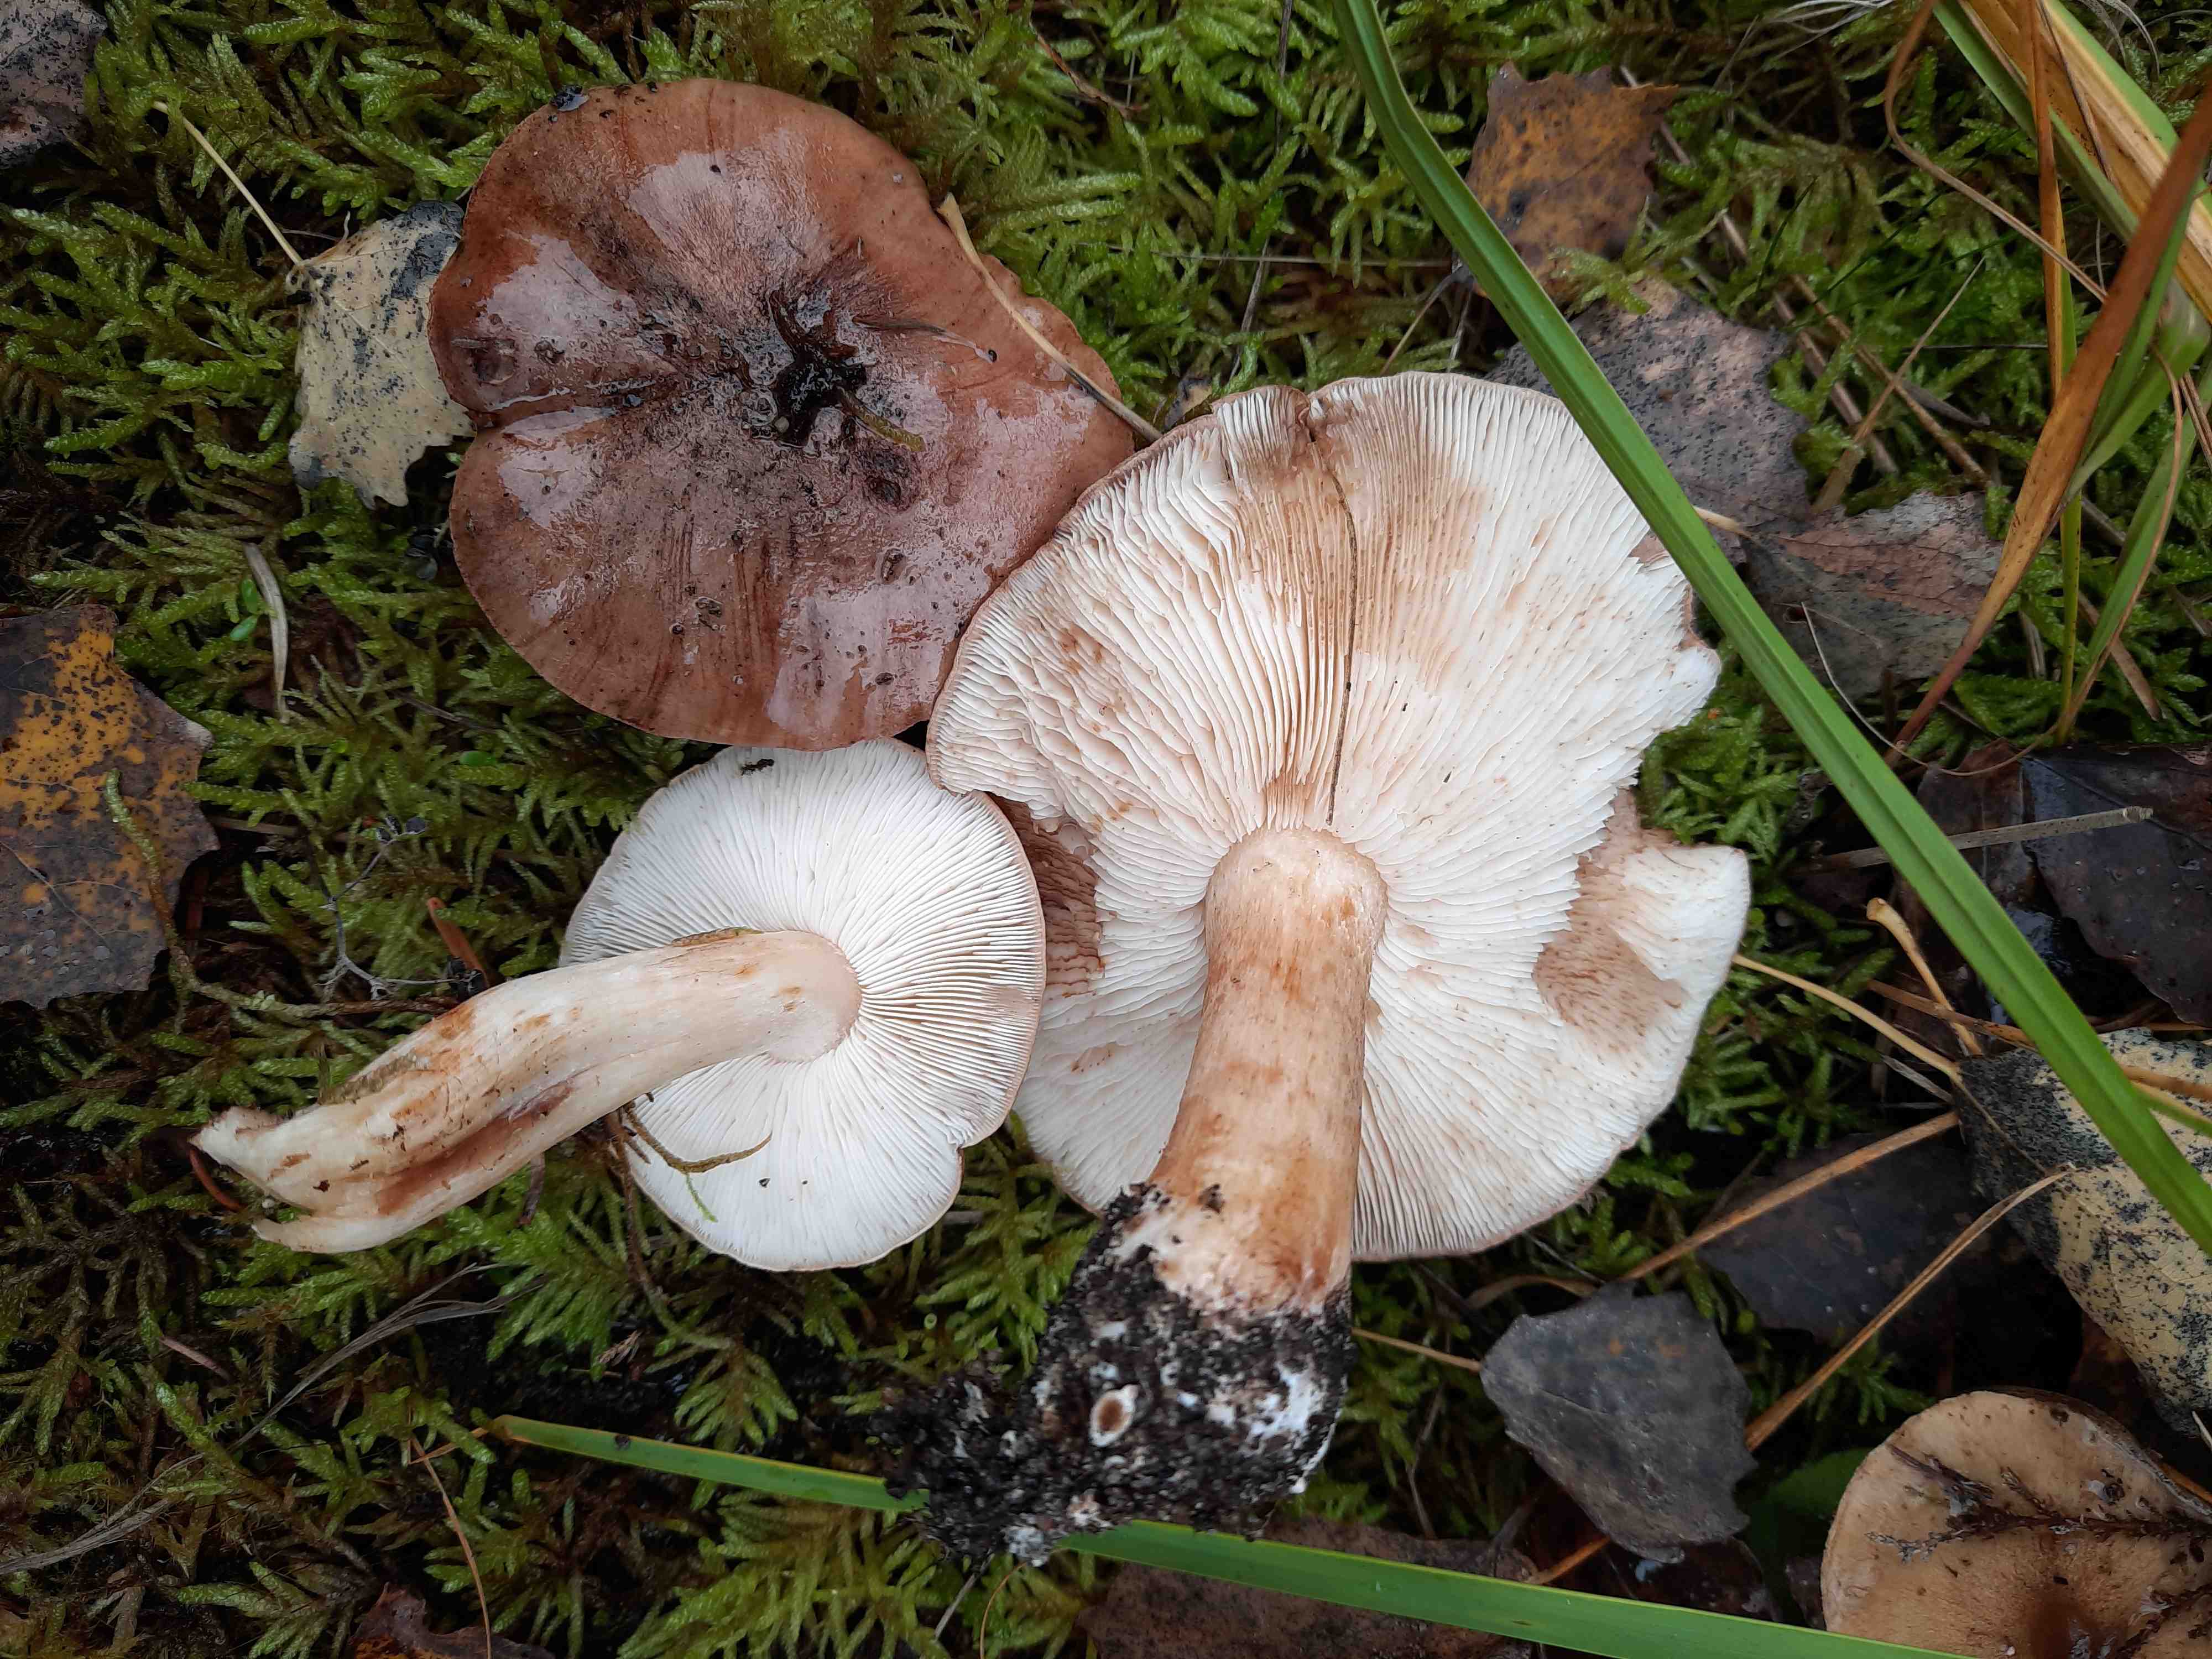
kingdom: Fungi
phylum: Basidiomycota
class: Agaricomycetes
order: Agaricales
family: Tricholomataceae
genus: Tricholoma
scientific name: Tricholoma populinum
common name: poppel-ridderhat
